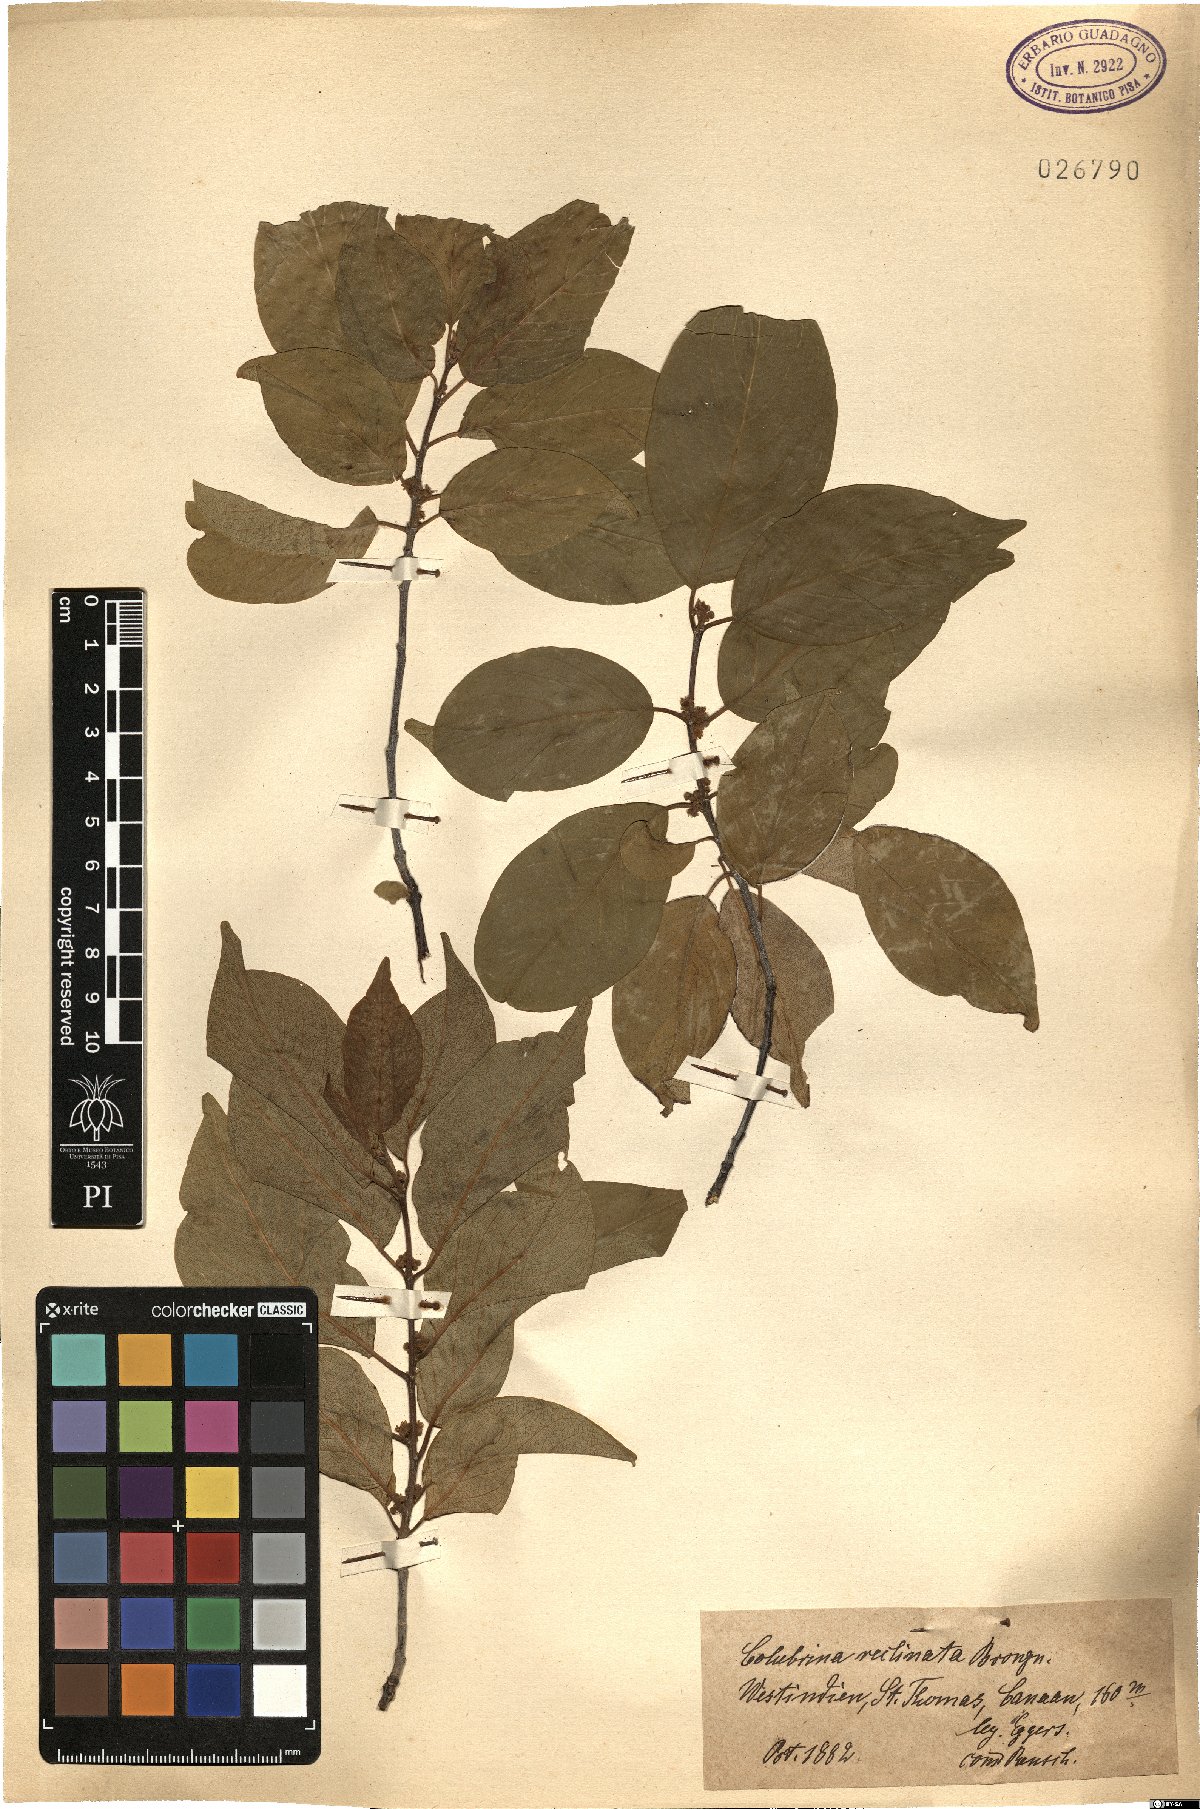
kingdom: Plantae
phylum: Tracheophyta
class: Magnoliopsida
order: Rosales
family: Rhamnaceae
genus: Colubrina
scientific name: Colubrina elliptica
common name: Soldierwood
